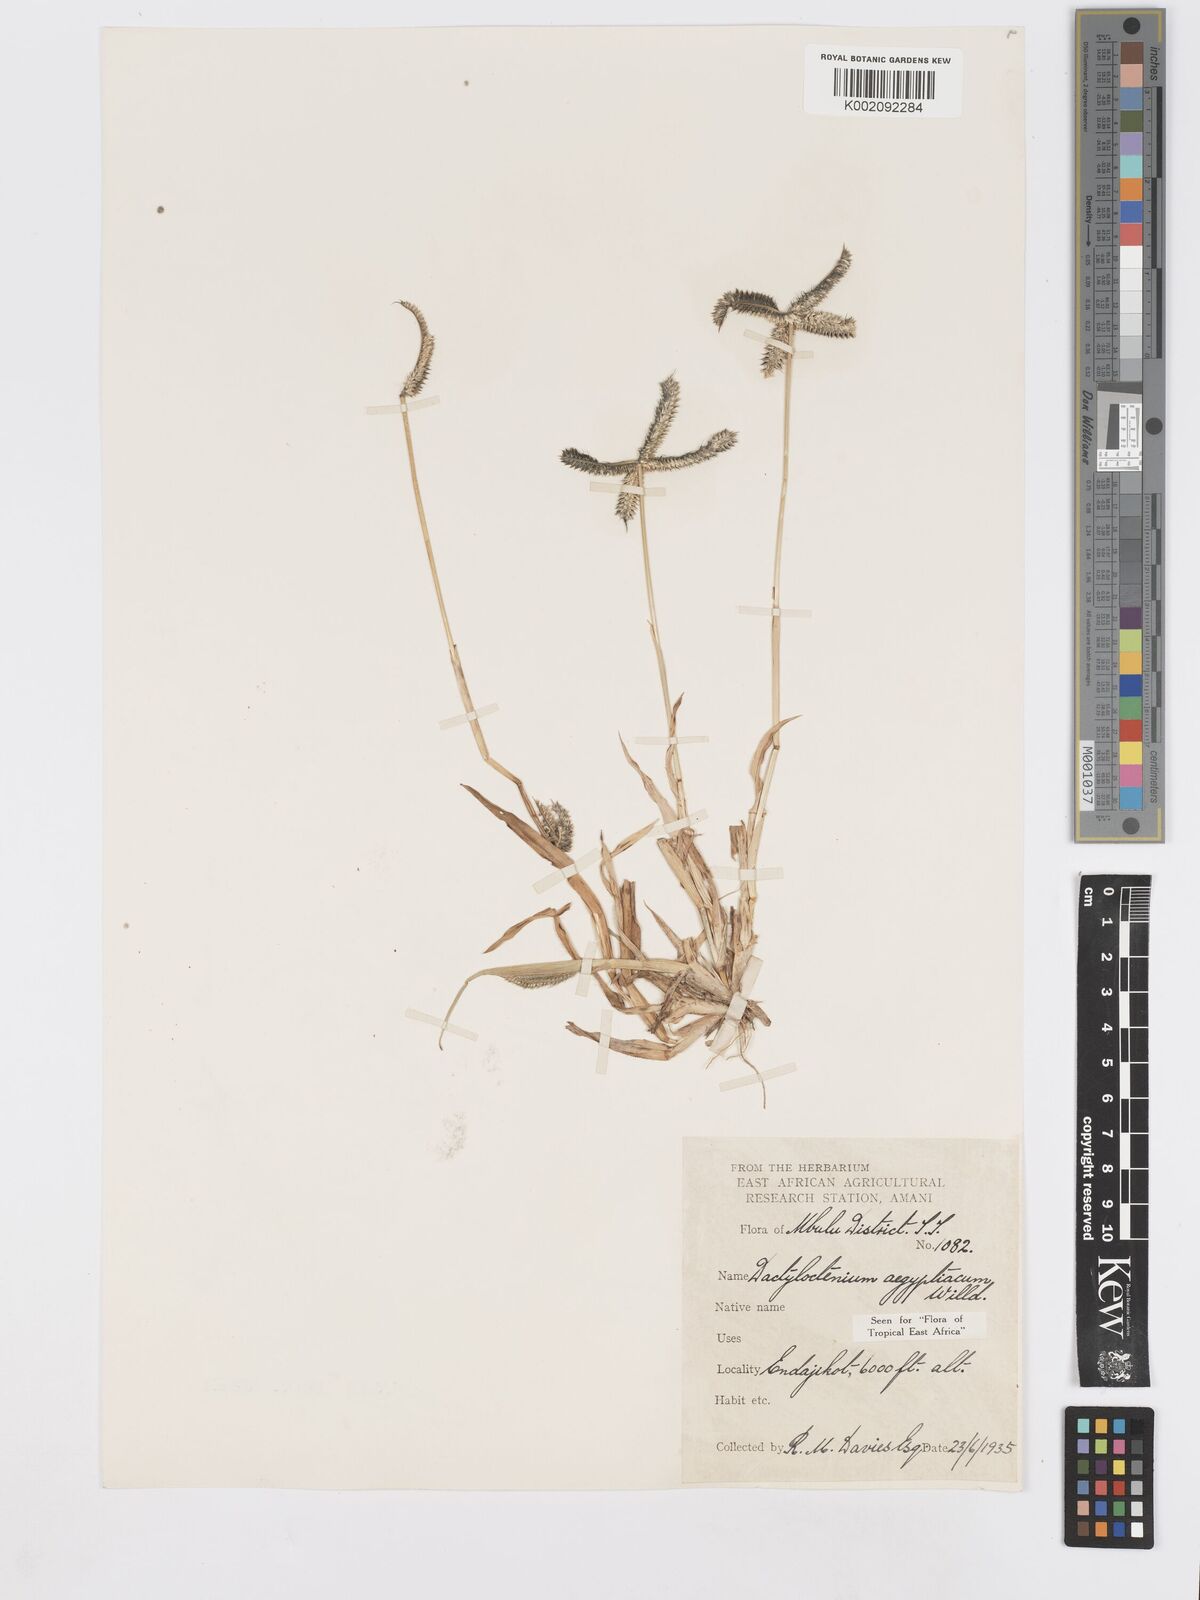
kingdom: Plantae
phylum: Tracheophyta
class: Liliopsida
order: Poales
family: Poaceae
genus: Dactyloctenium
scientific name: Dactyloctenium aegyptium
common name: Egyptian grass
